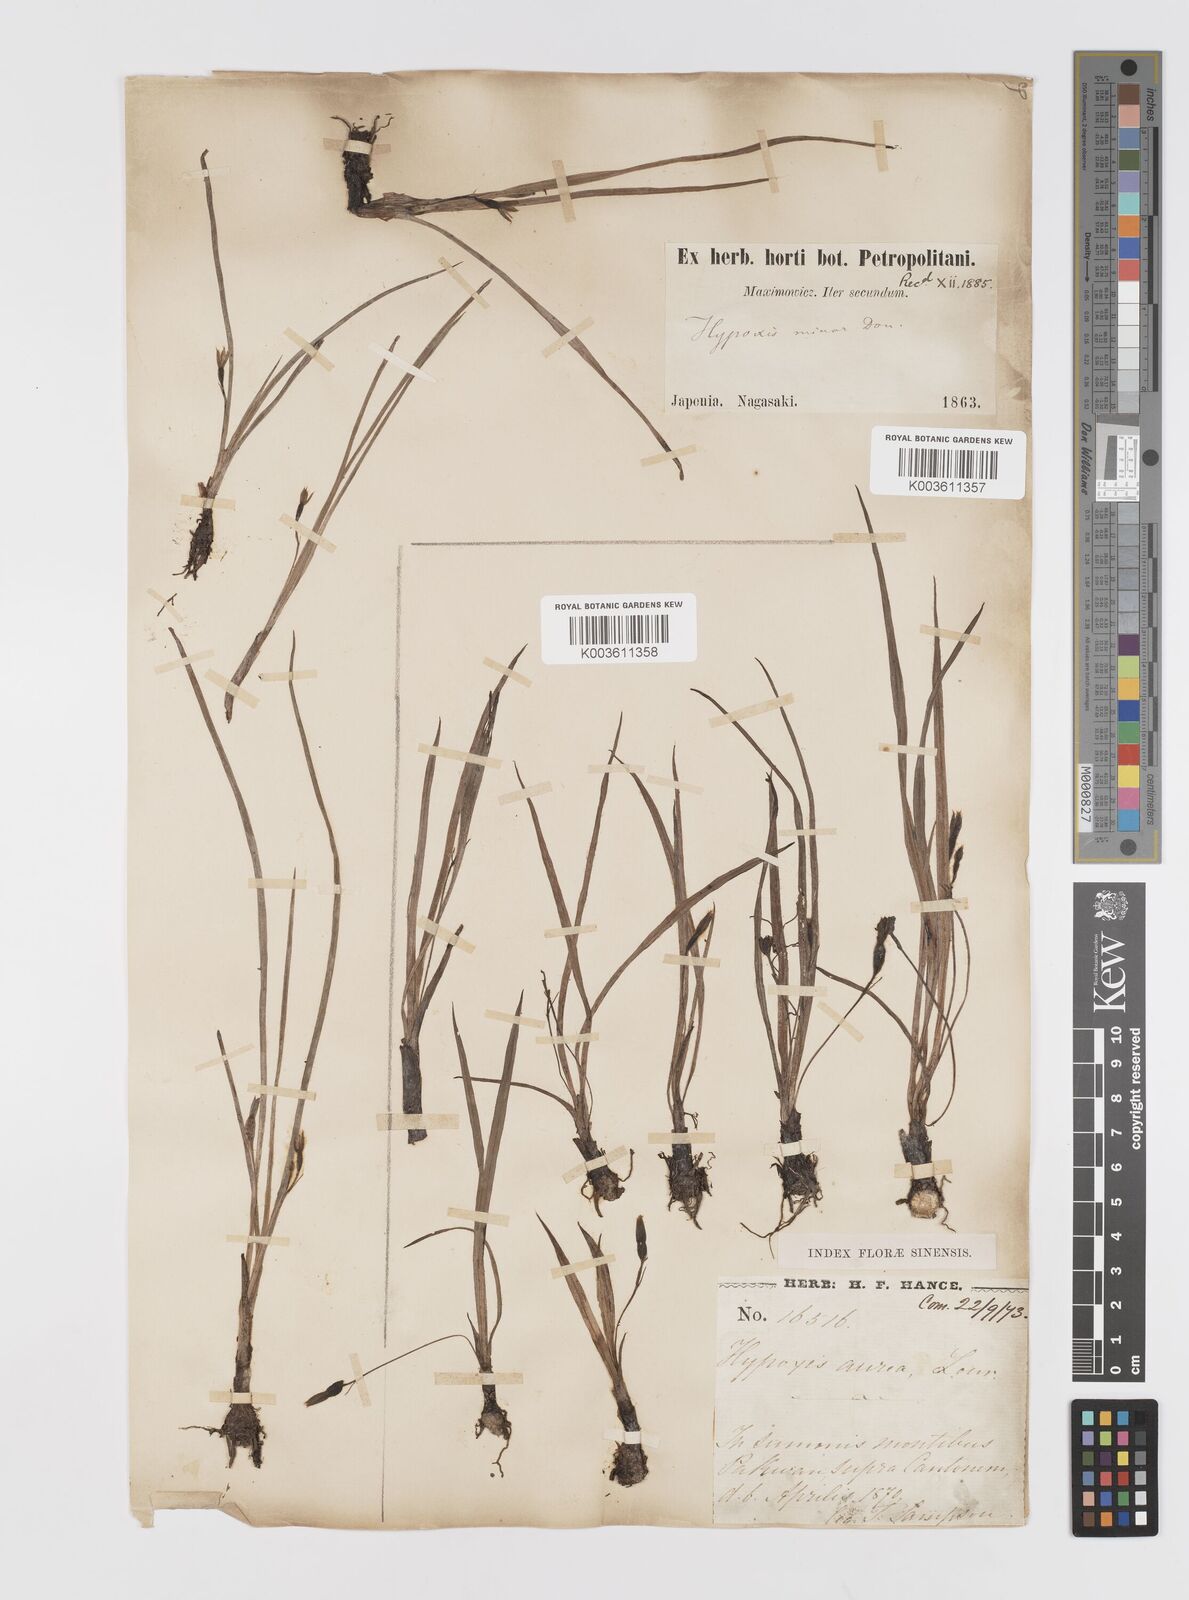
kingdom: Plantae
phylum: Tracheophyta
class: Liliopsida
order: Asparagales
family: Hypoxidaceae
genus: Hypoxis
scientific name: Hypoxis aurea
